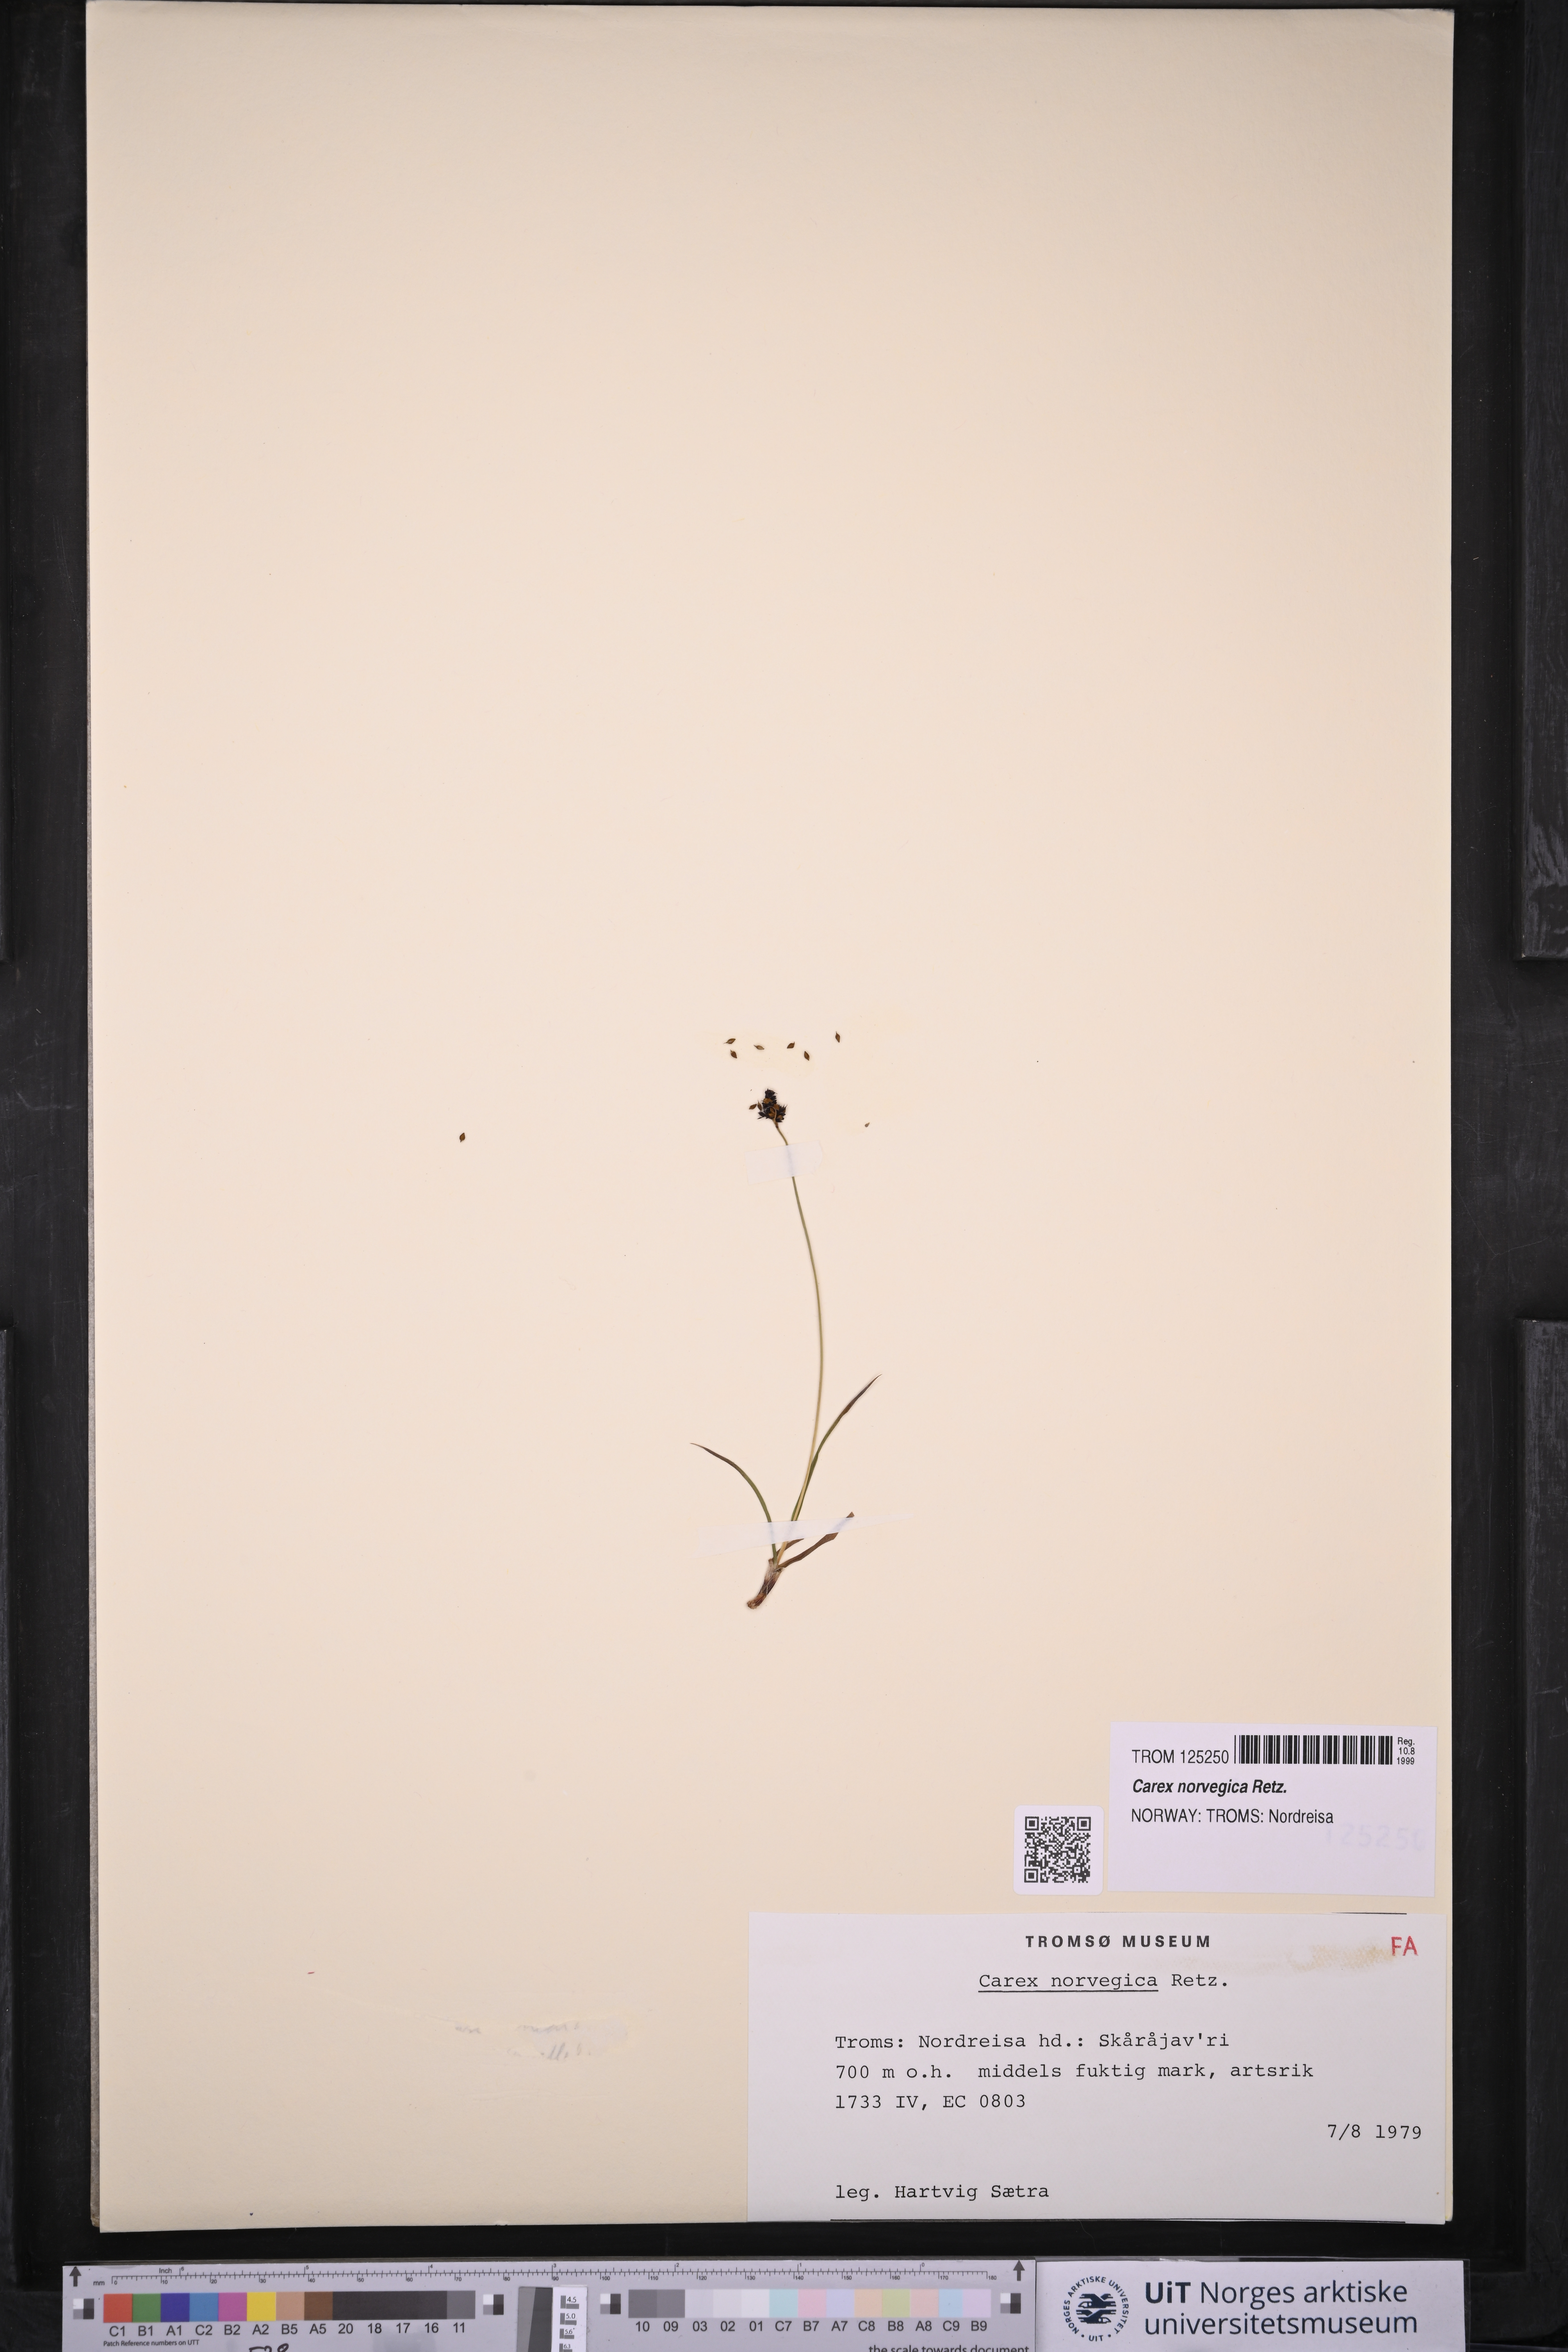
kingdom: Plantae
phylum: Tracheophyta
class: Liliopsida
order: Poales
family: Cyperaceae
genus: Carex
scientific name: Carex norvegica
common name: Close-headed alpine-sedge
